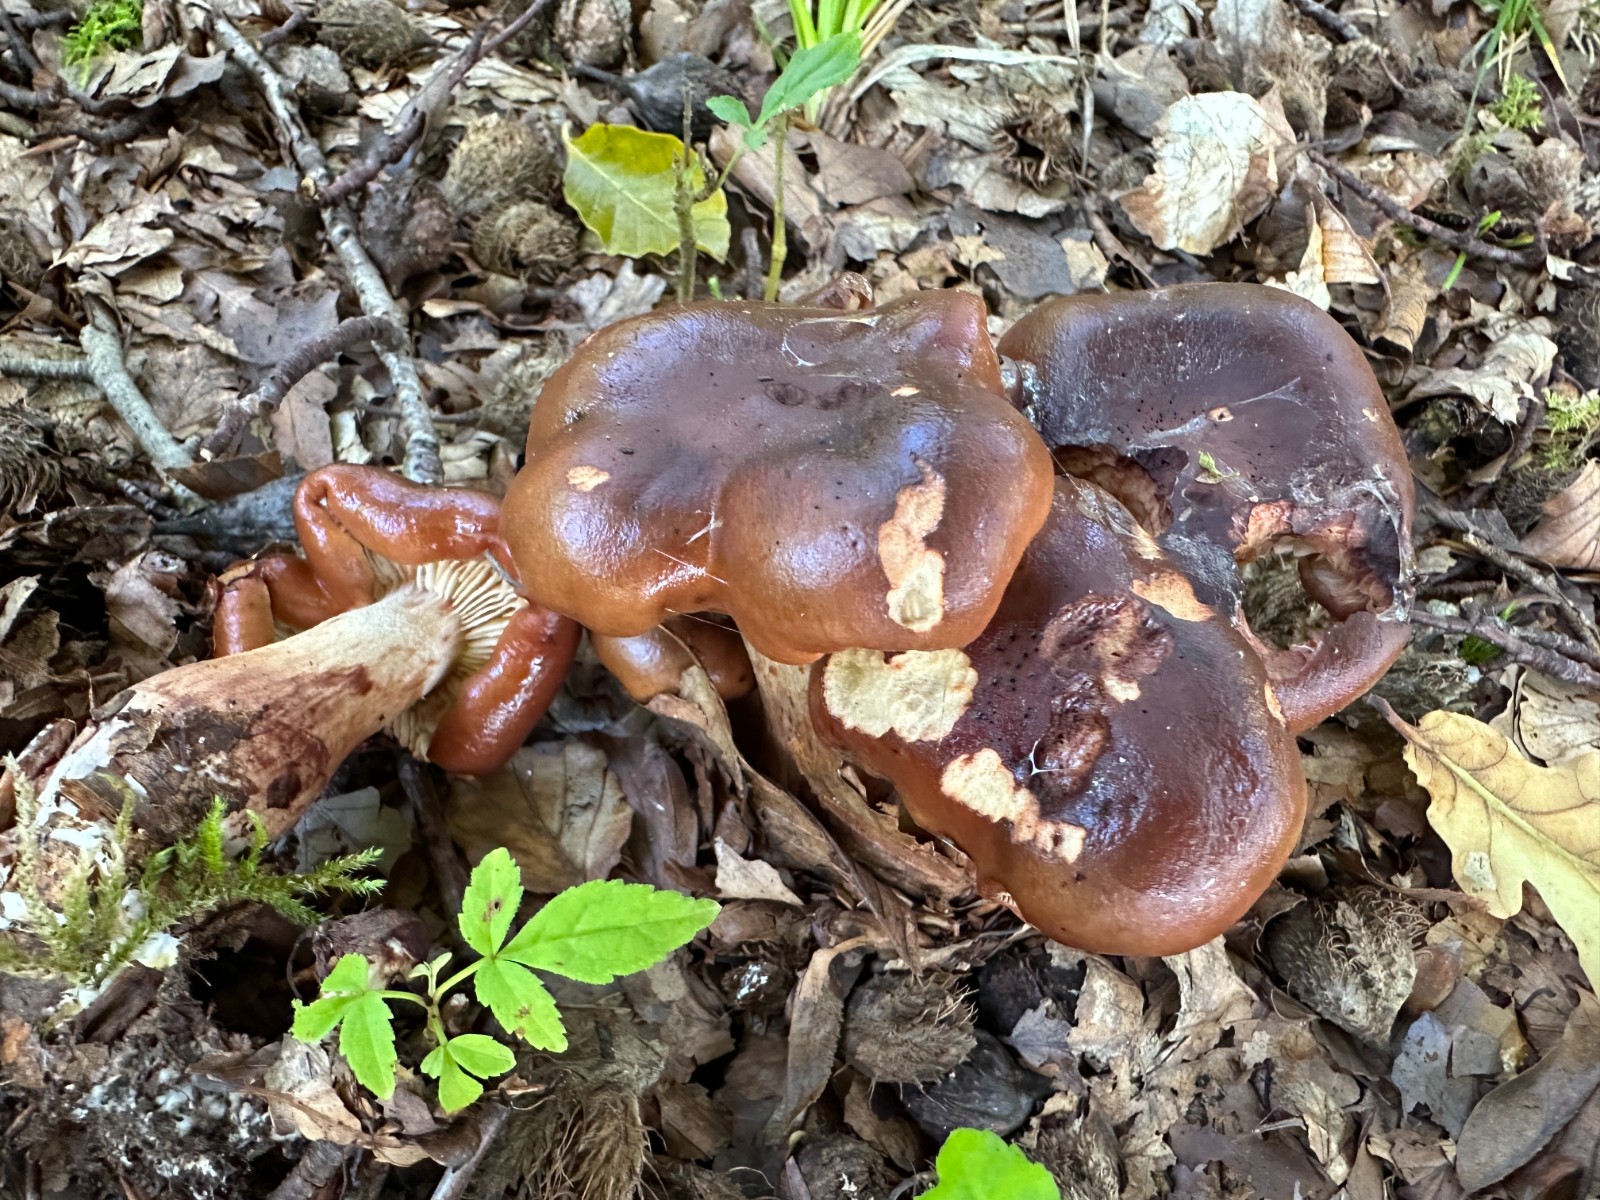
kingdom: Fungi
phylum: Basidiomycota
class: Agaricomycetes
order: Agaricales
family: Tricholomataceae
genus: Tricholoma
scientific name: Tricholoma ustale
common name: sveden ridderhat
